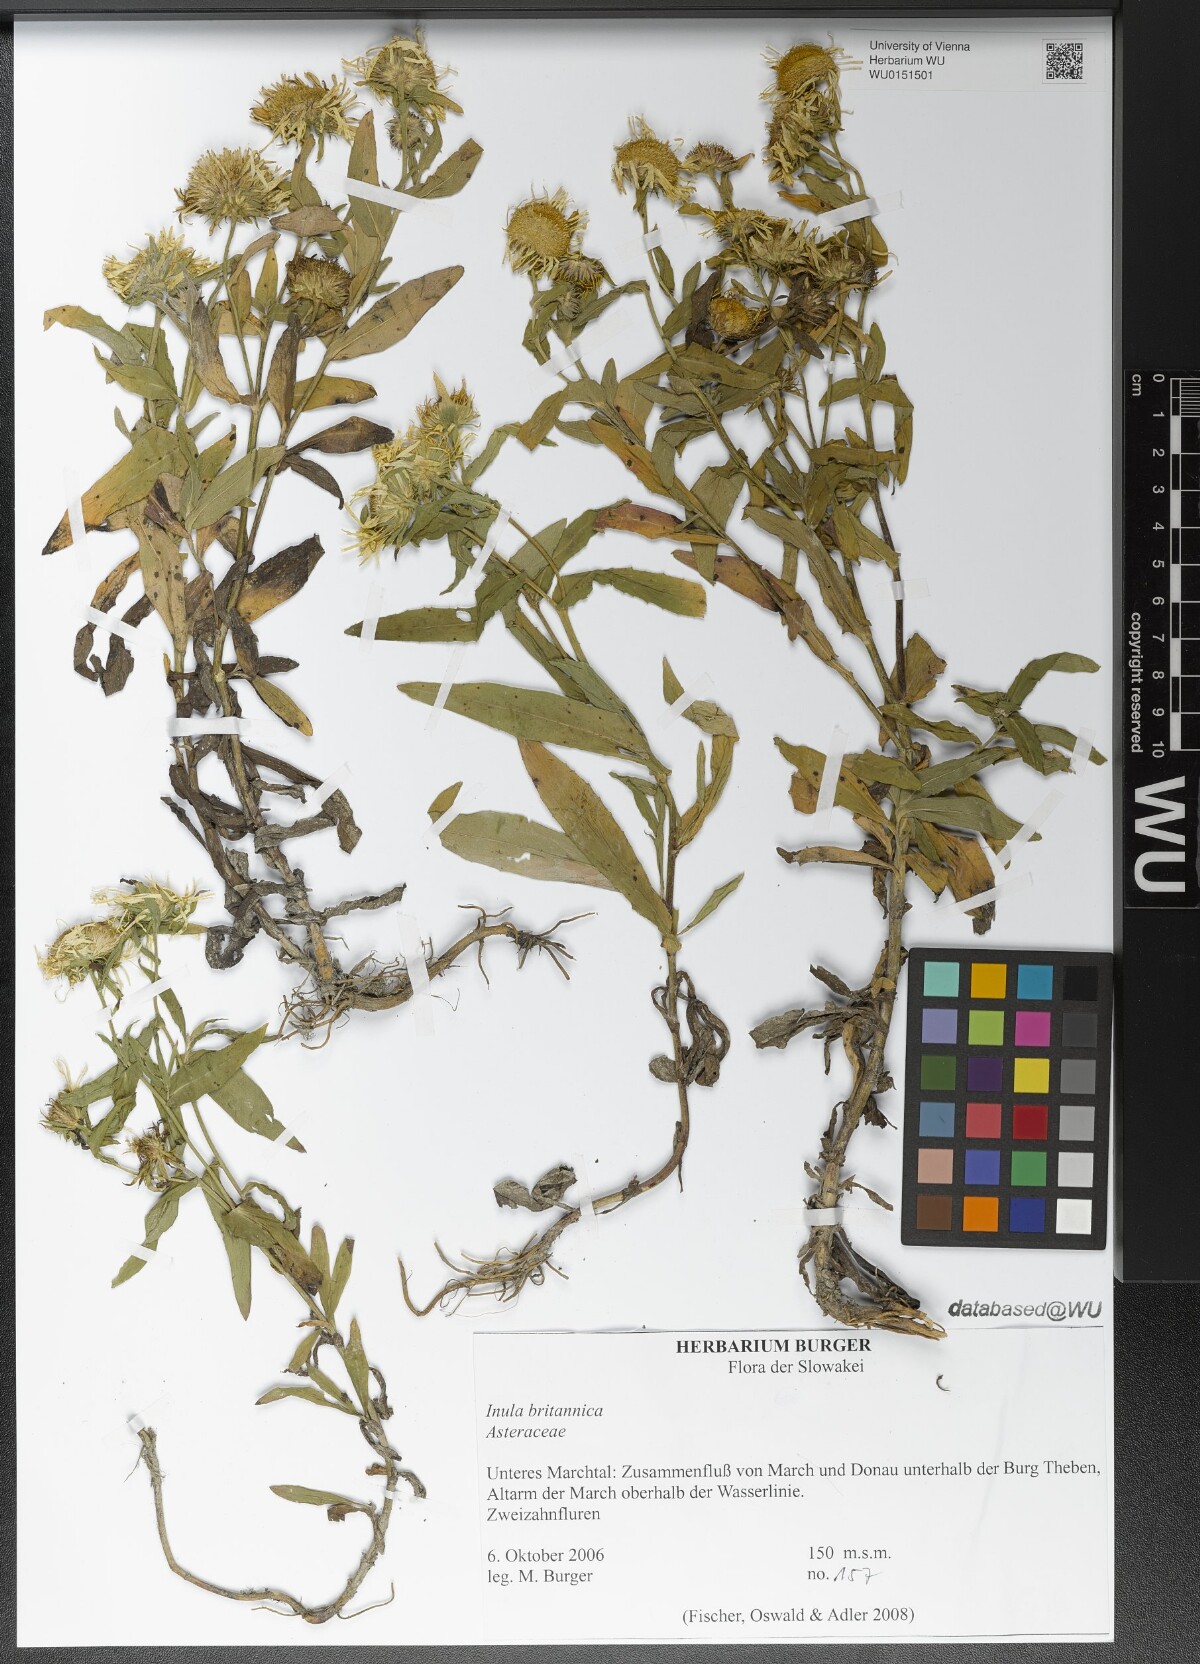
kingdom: Plantae
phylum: Tracheophyta
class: Magnoliopsida
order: Asterales
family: Asteraceae
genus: Pentanema
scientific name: Pentanema britannicum
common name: British elecampane
